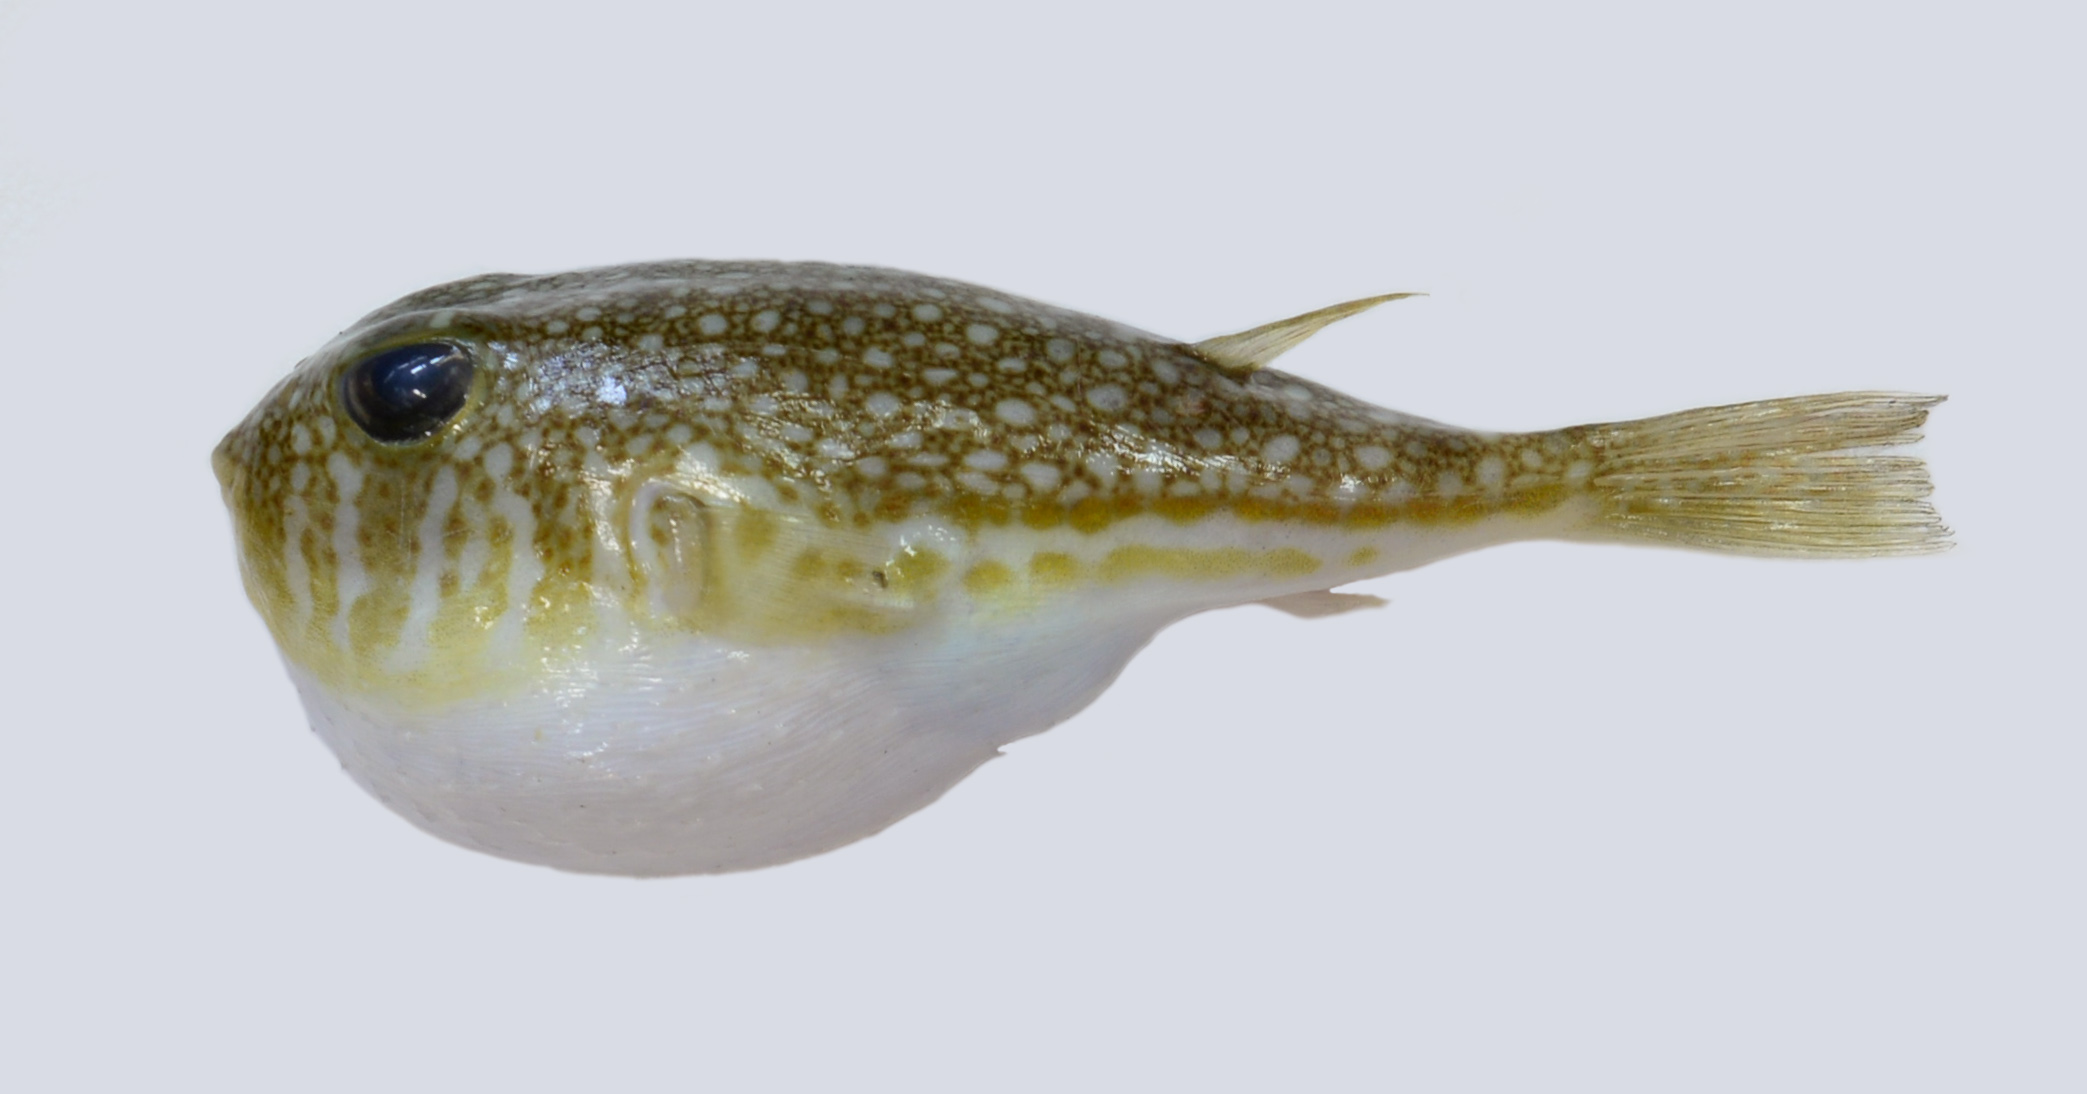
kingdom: Animalia
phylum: Chordata
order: Tetraodontiformes
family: Tetraodontidae
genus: Torquigener
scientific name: Torquigener flavimaculosus
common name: Studded pufferfish
